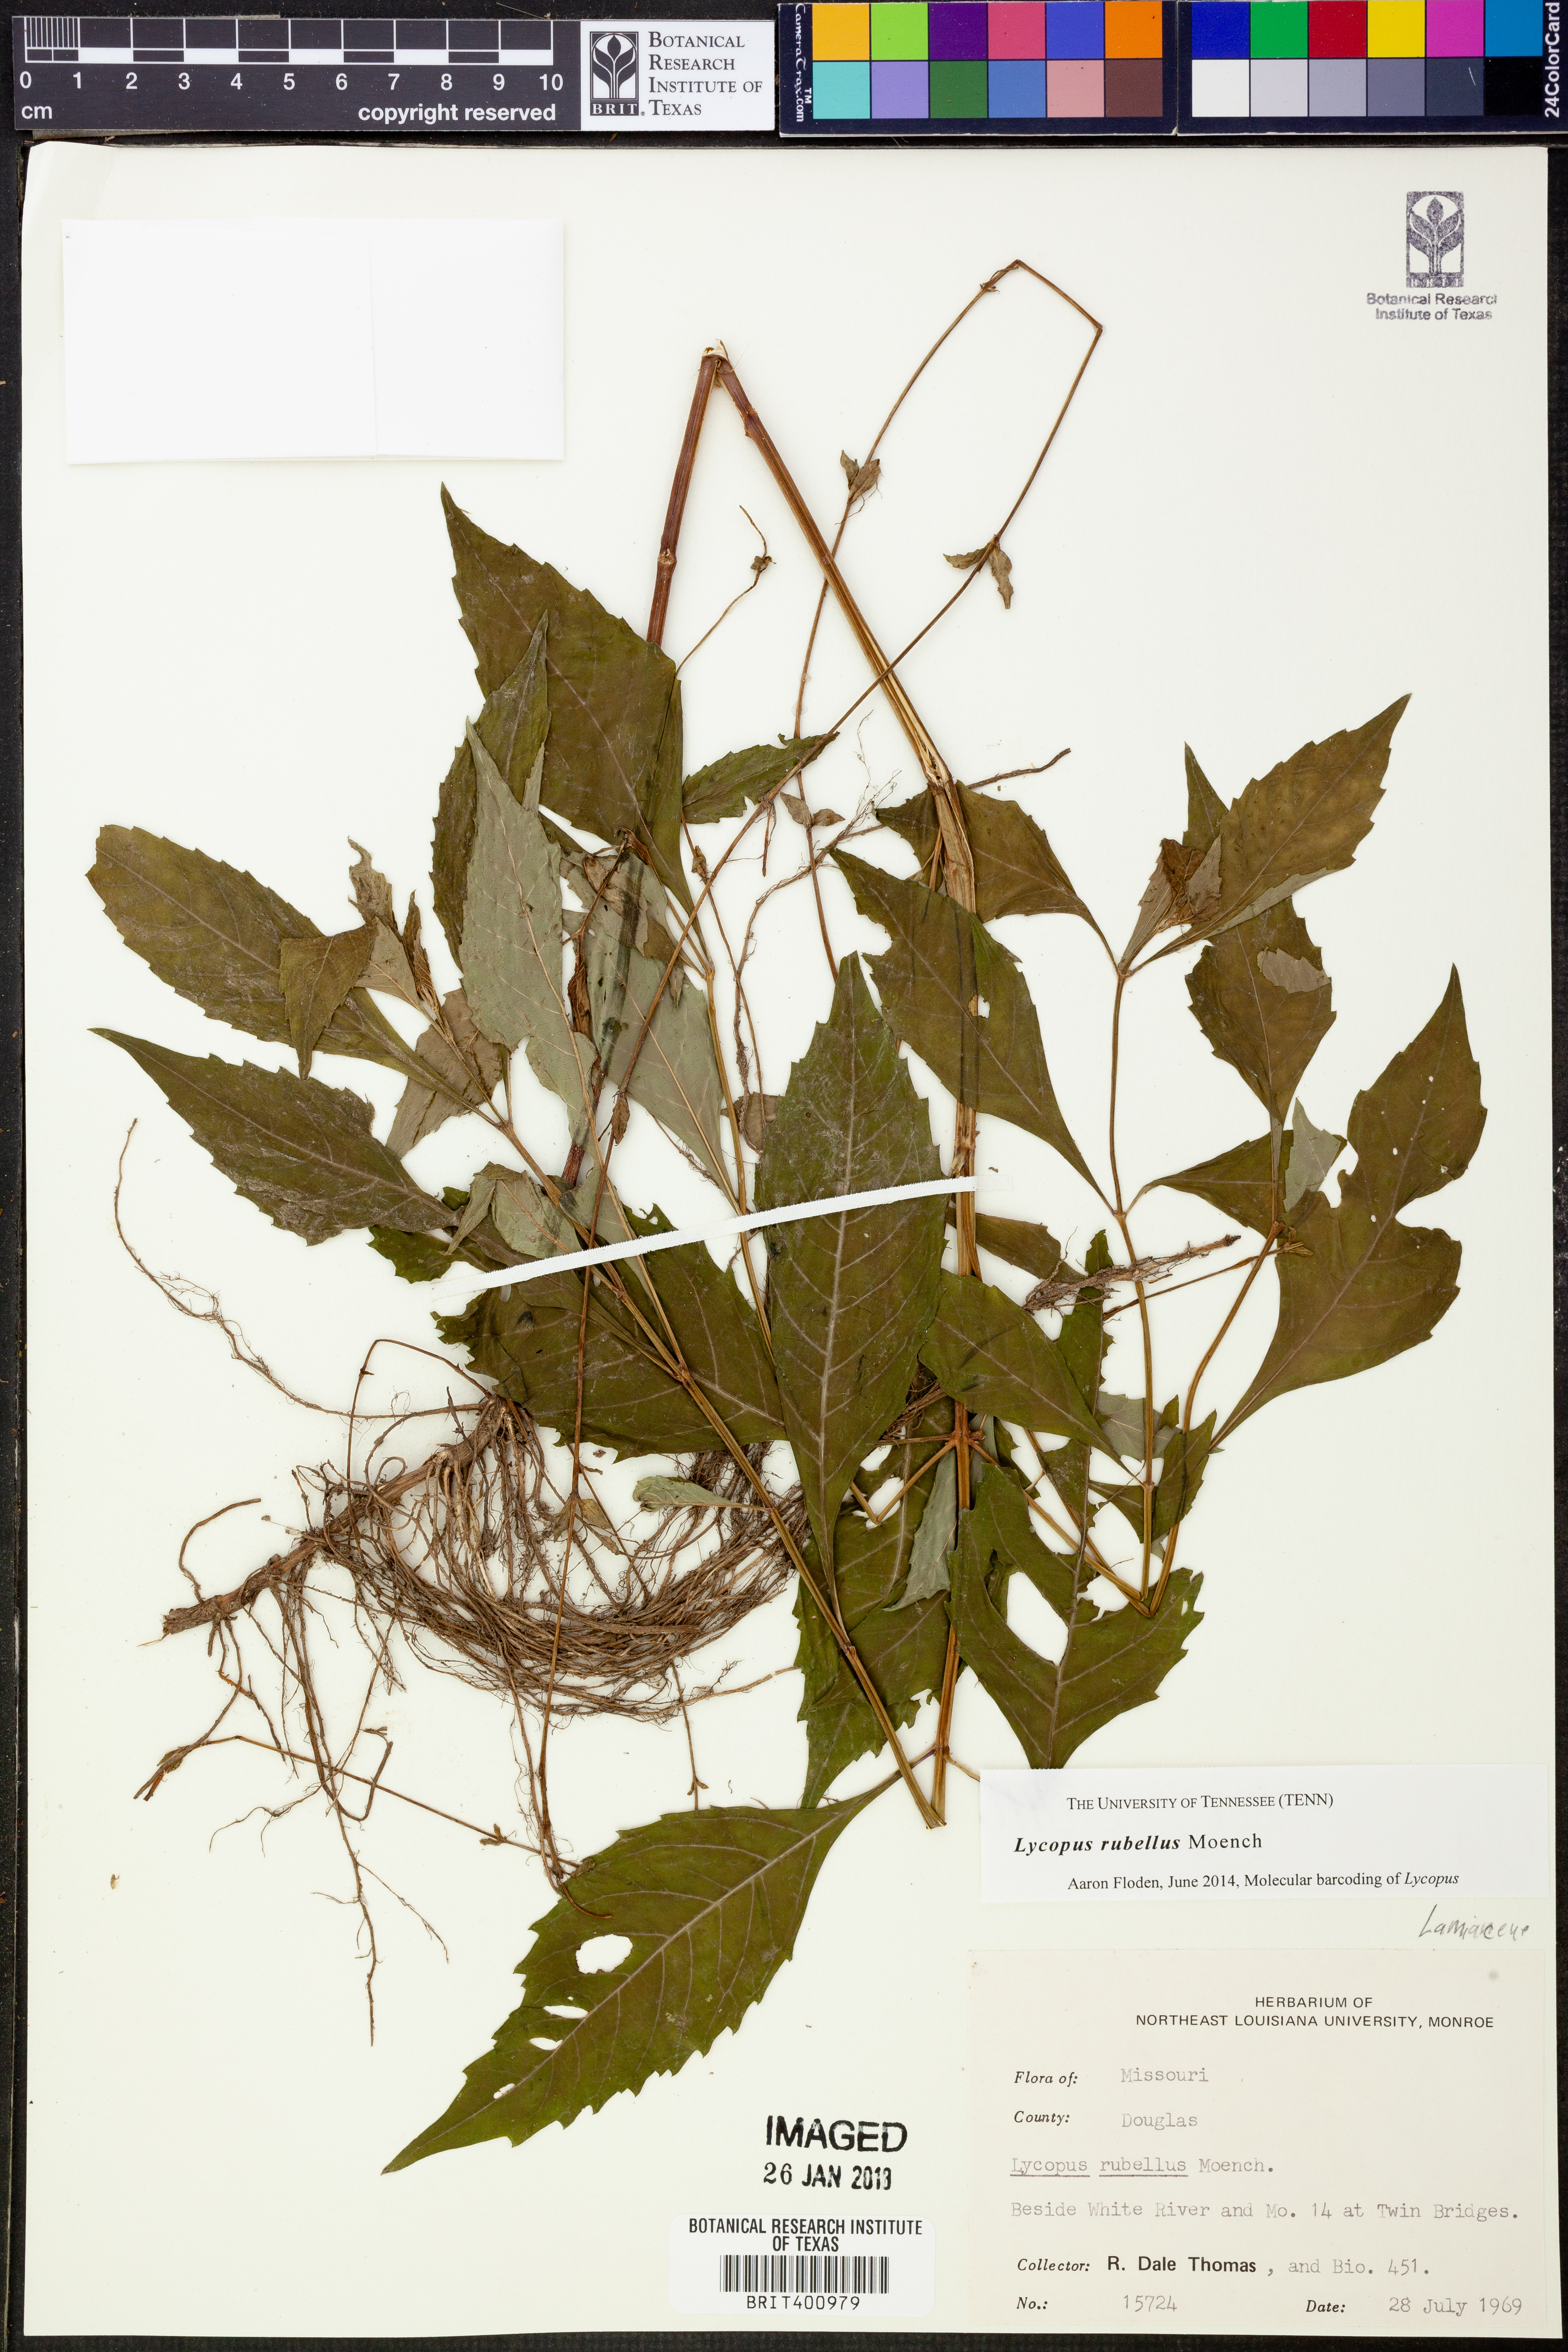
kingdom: Plantae
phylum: Tracheophyta
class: Magnoliopsida
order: Lamiales
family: Lamiaceae
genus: Lycopus
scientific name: Lycopus rubellus
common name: Stalked bugleweed
